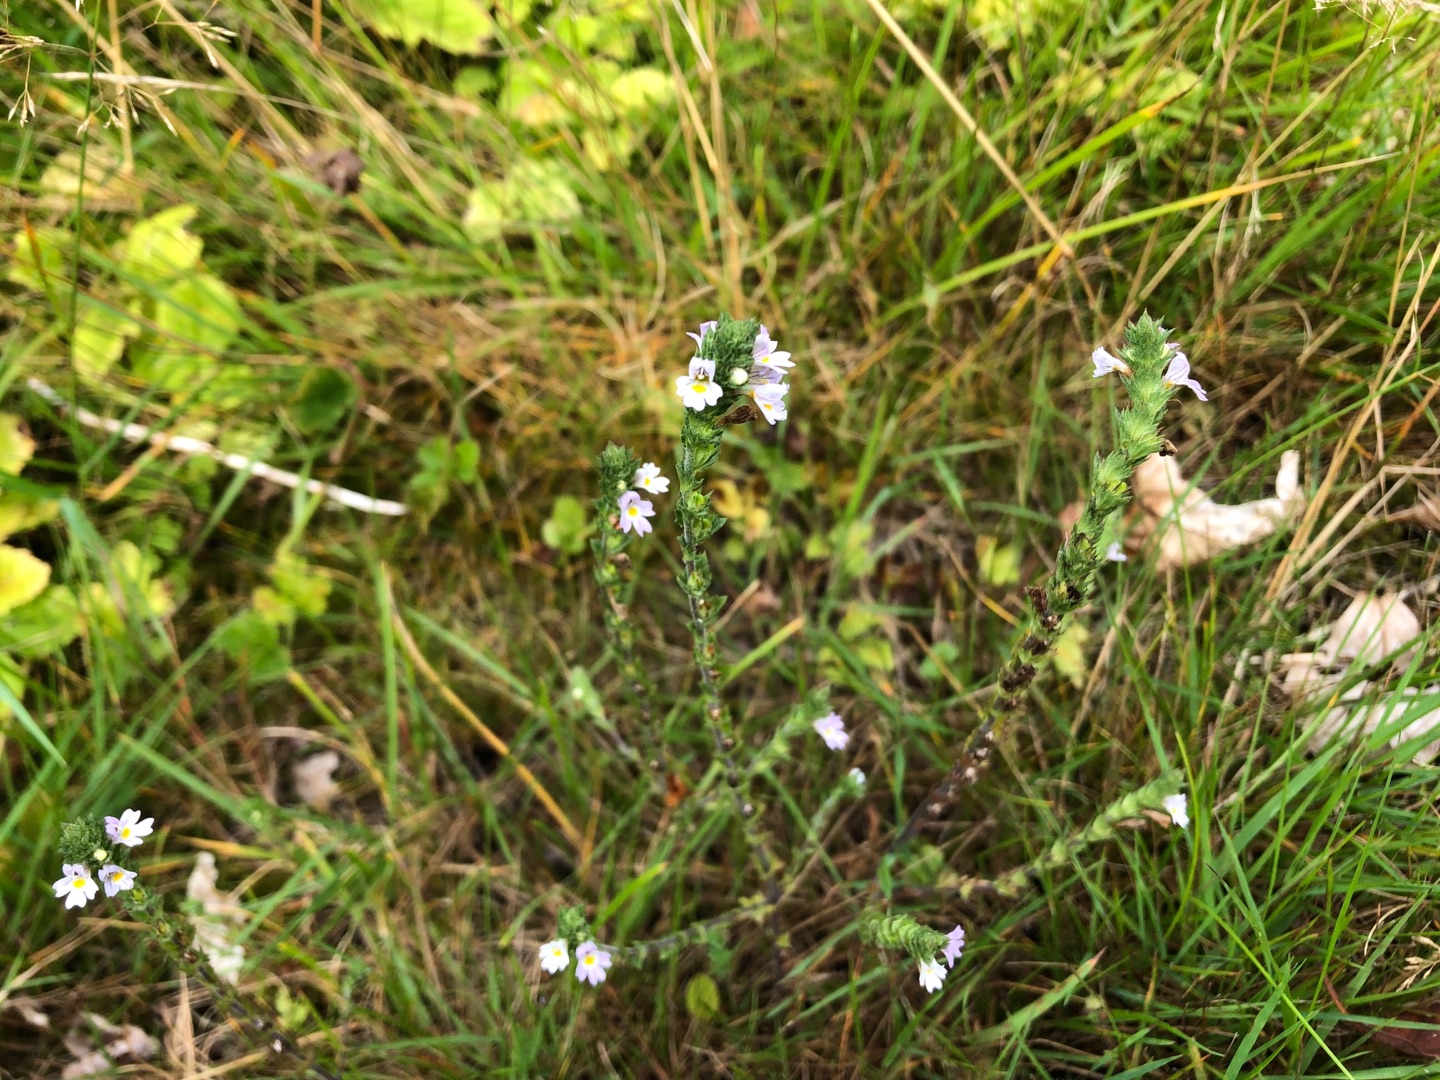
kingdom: Plantae
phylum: Tracheophyta
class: Magnoliopsida
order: Lamiales
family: Orobanchaceae
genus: Euphrasia
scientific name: Euphrasia stricta
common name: Spids øjentrøst
